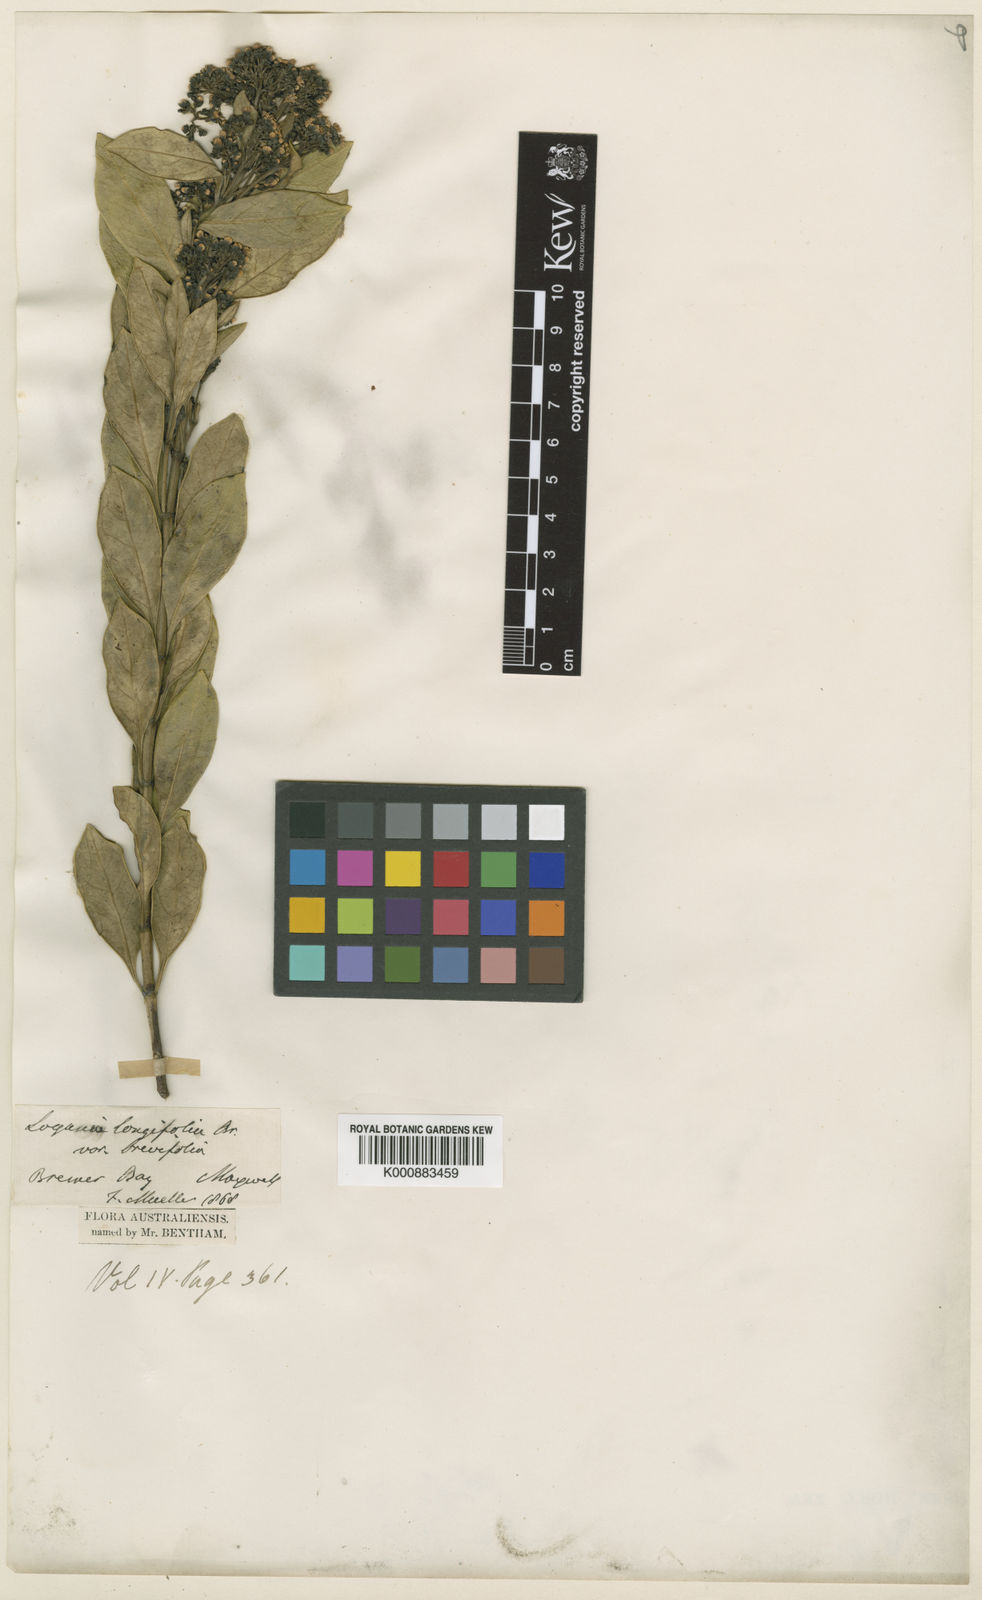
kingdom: Plantae
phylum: Tracheophyta
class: Magnoliopsida
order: Gentianales
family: Loganiaceae
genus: Logania
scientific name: Logania albiflora
